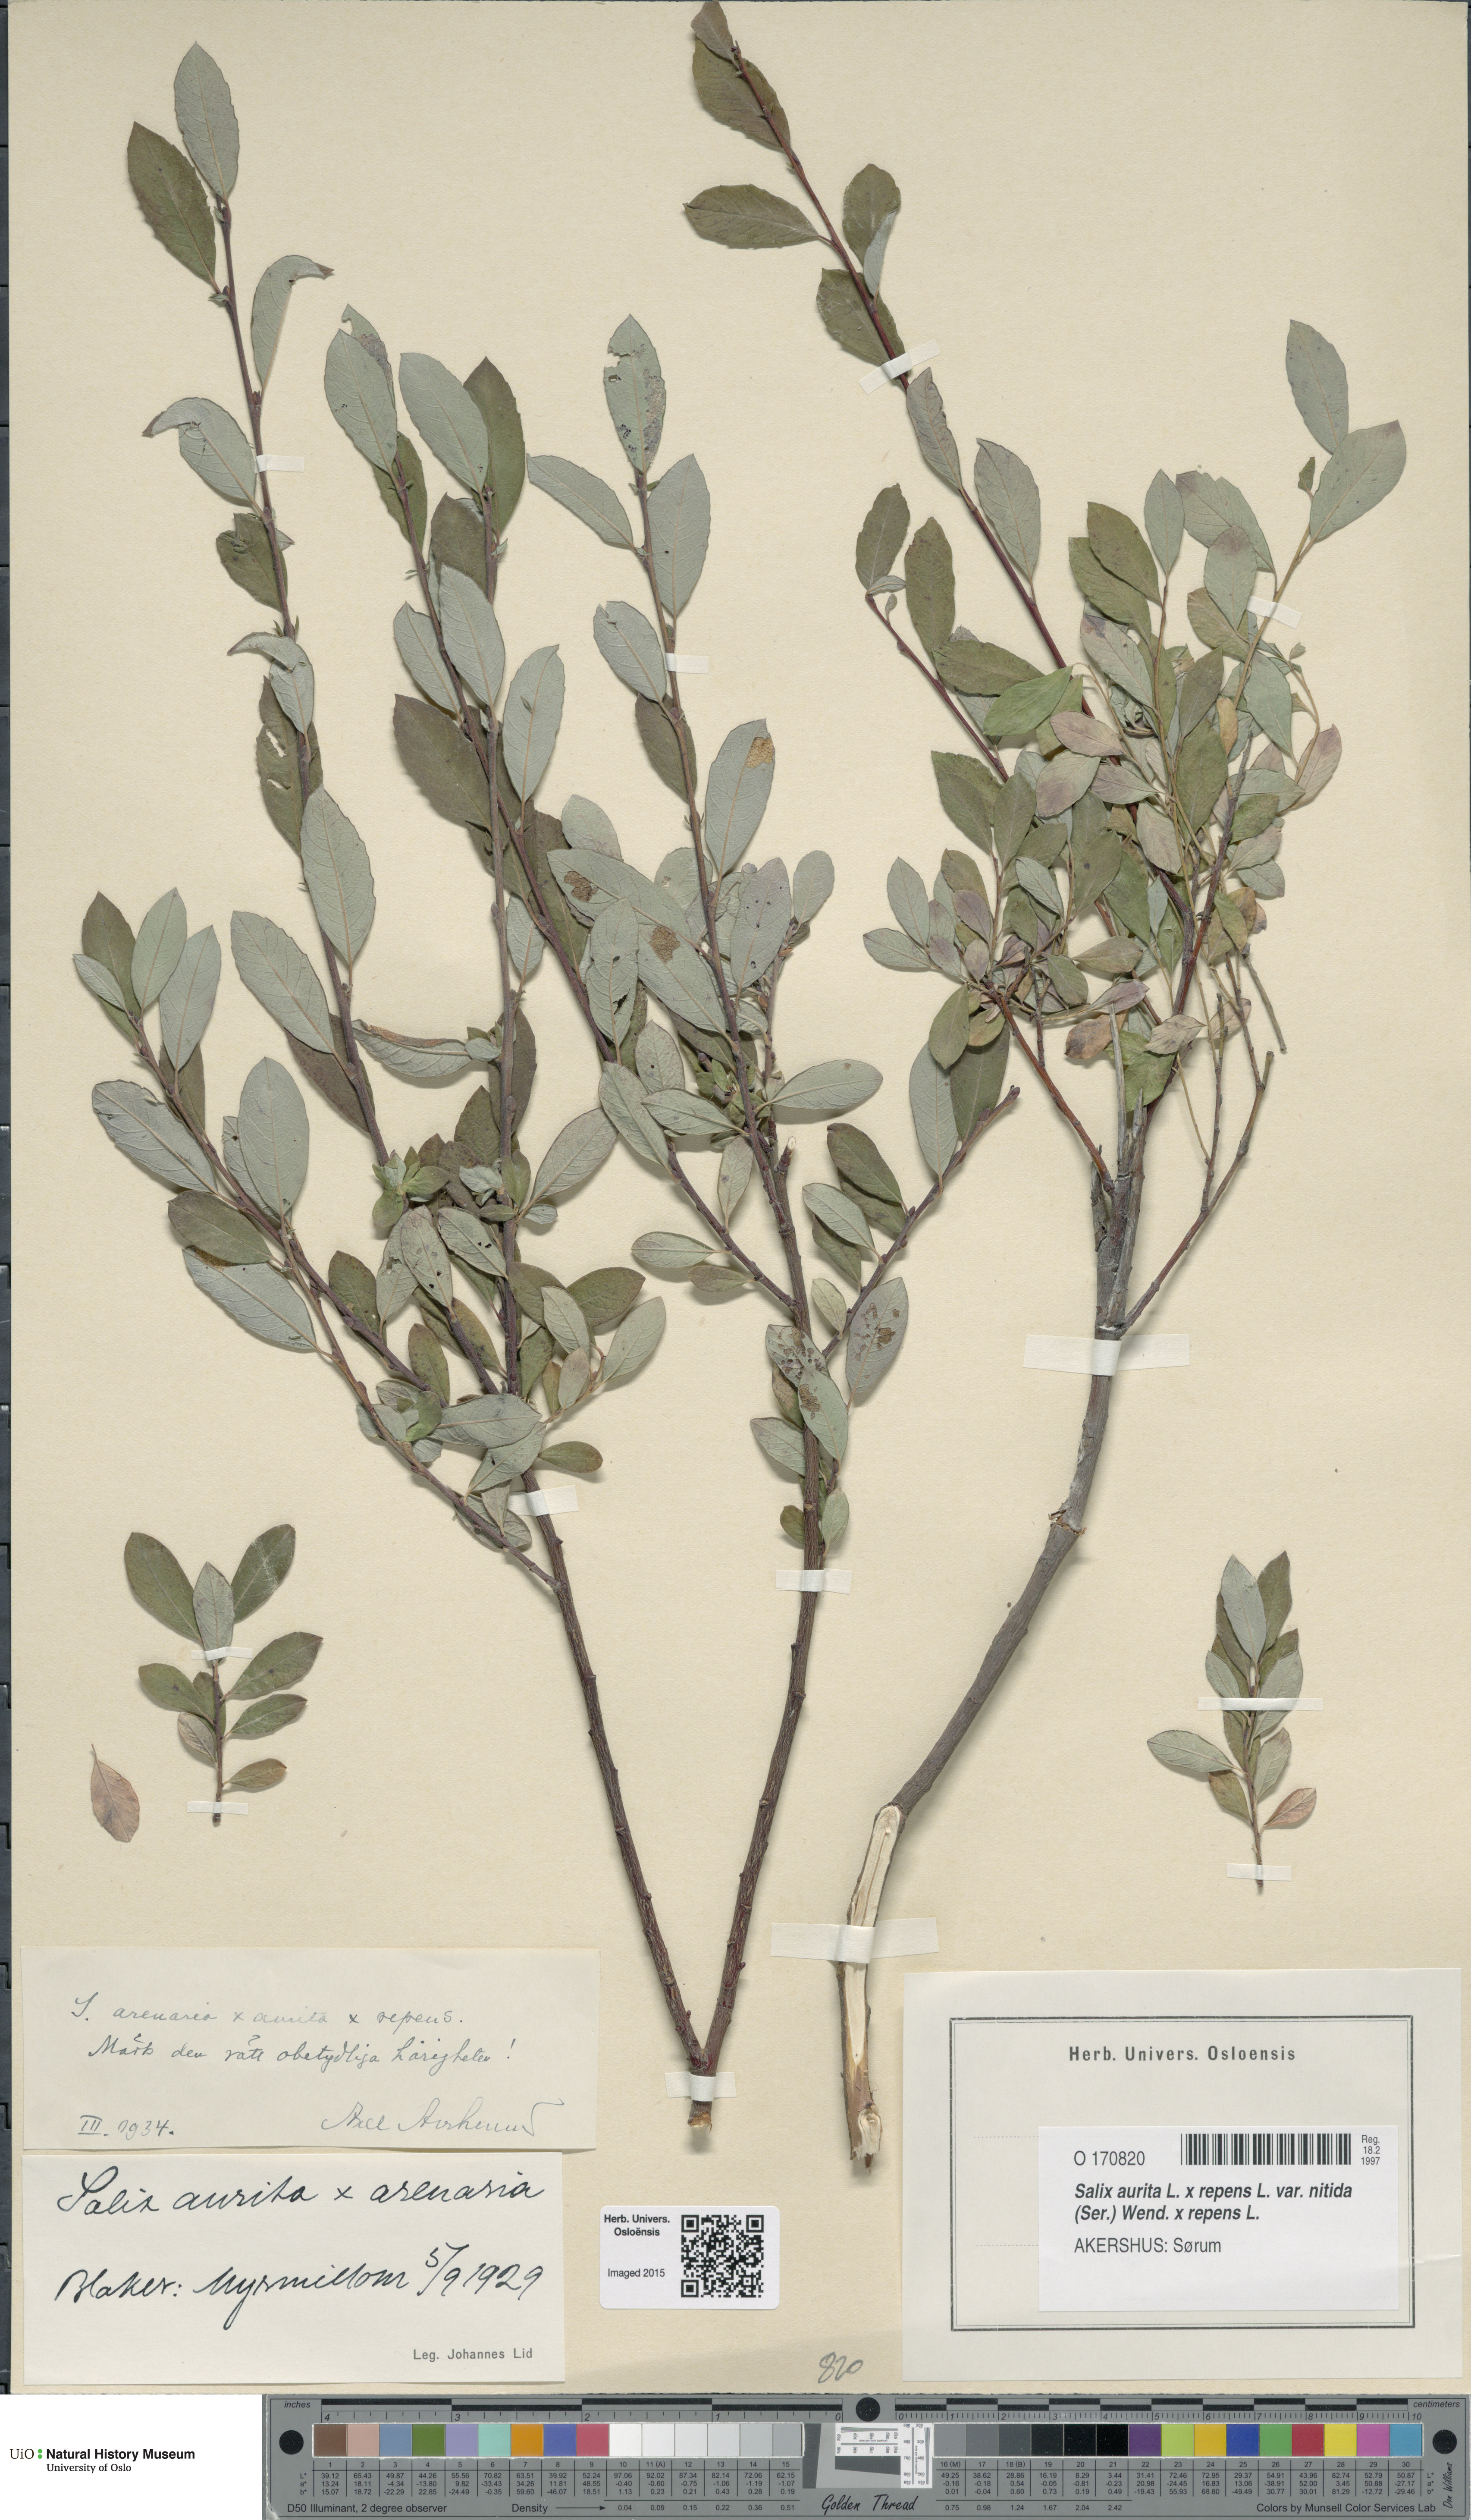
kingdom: Plantae
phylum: Tracheophyta
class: Magnoliopsida
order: Malpighiales
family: Salicaceae
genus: Salix
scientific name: Salix
